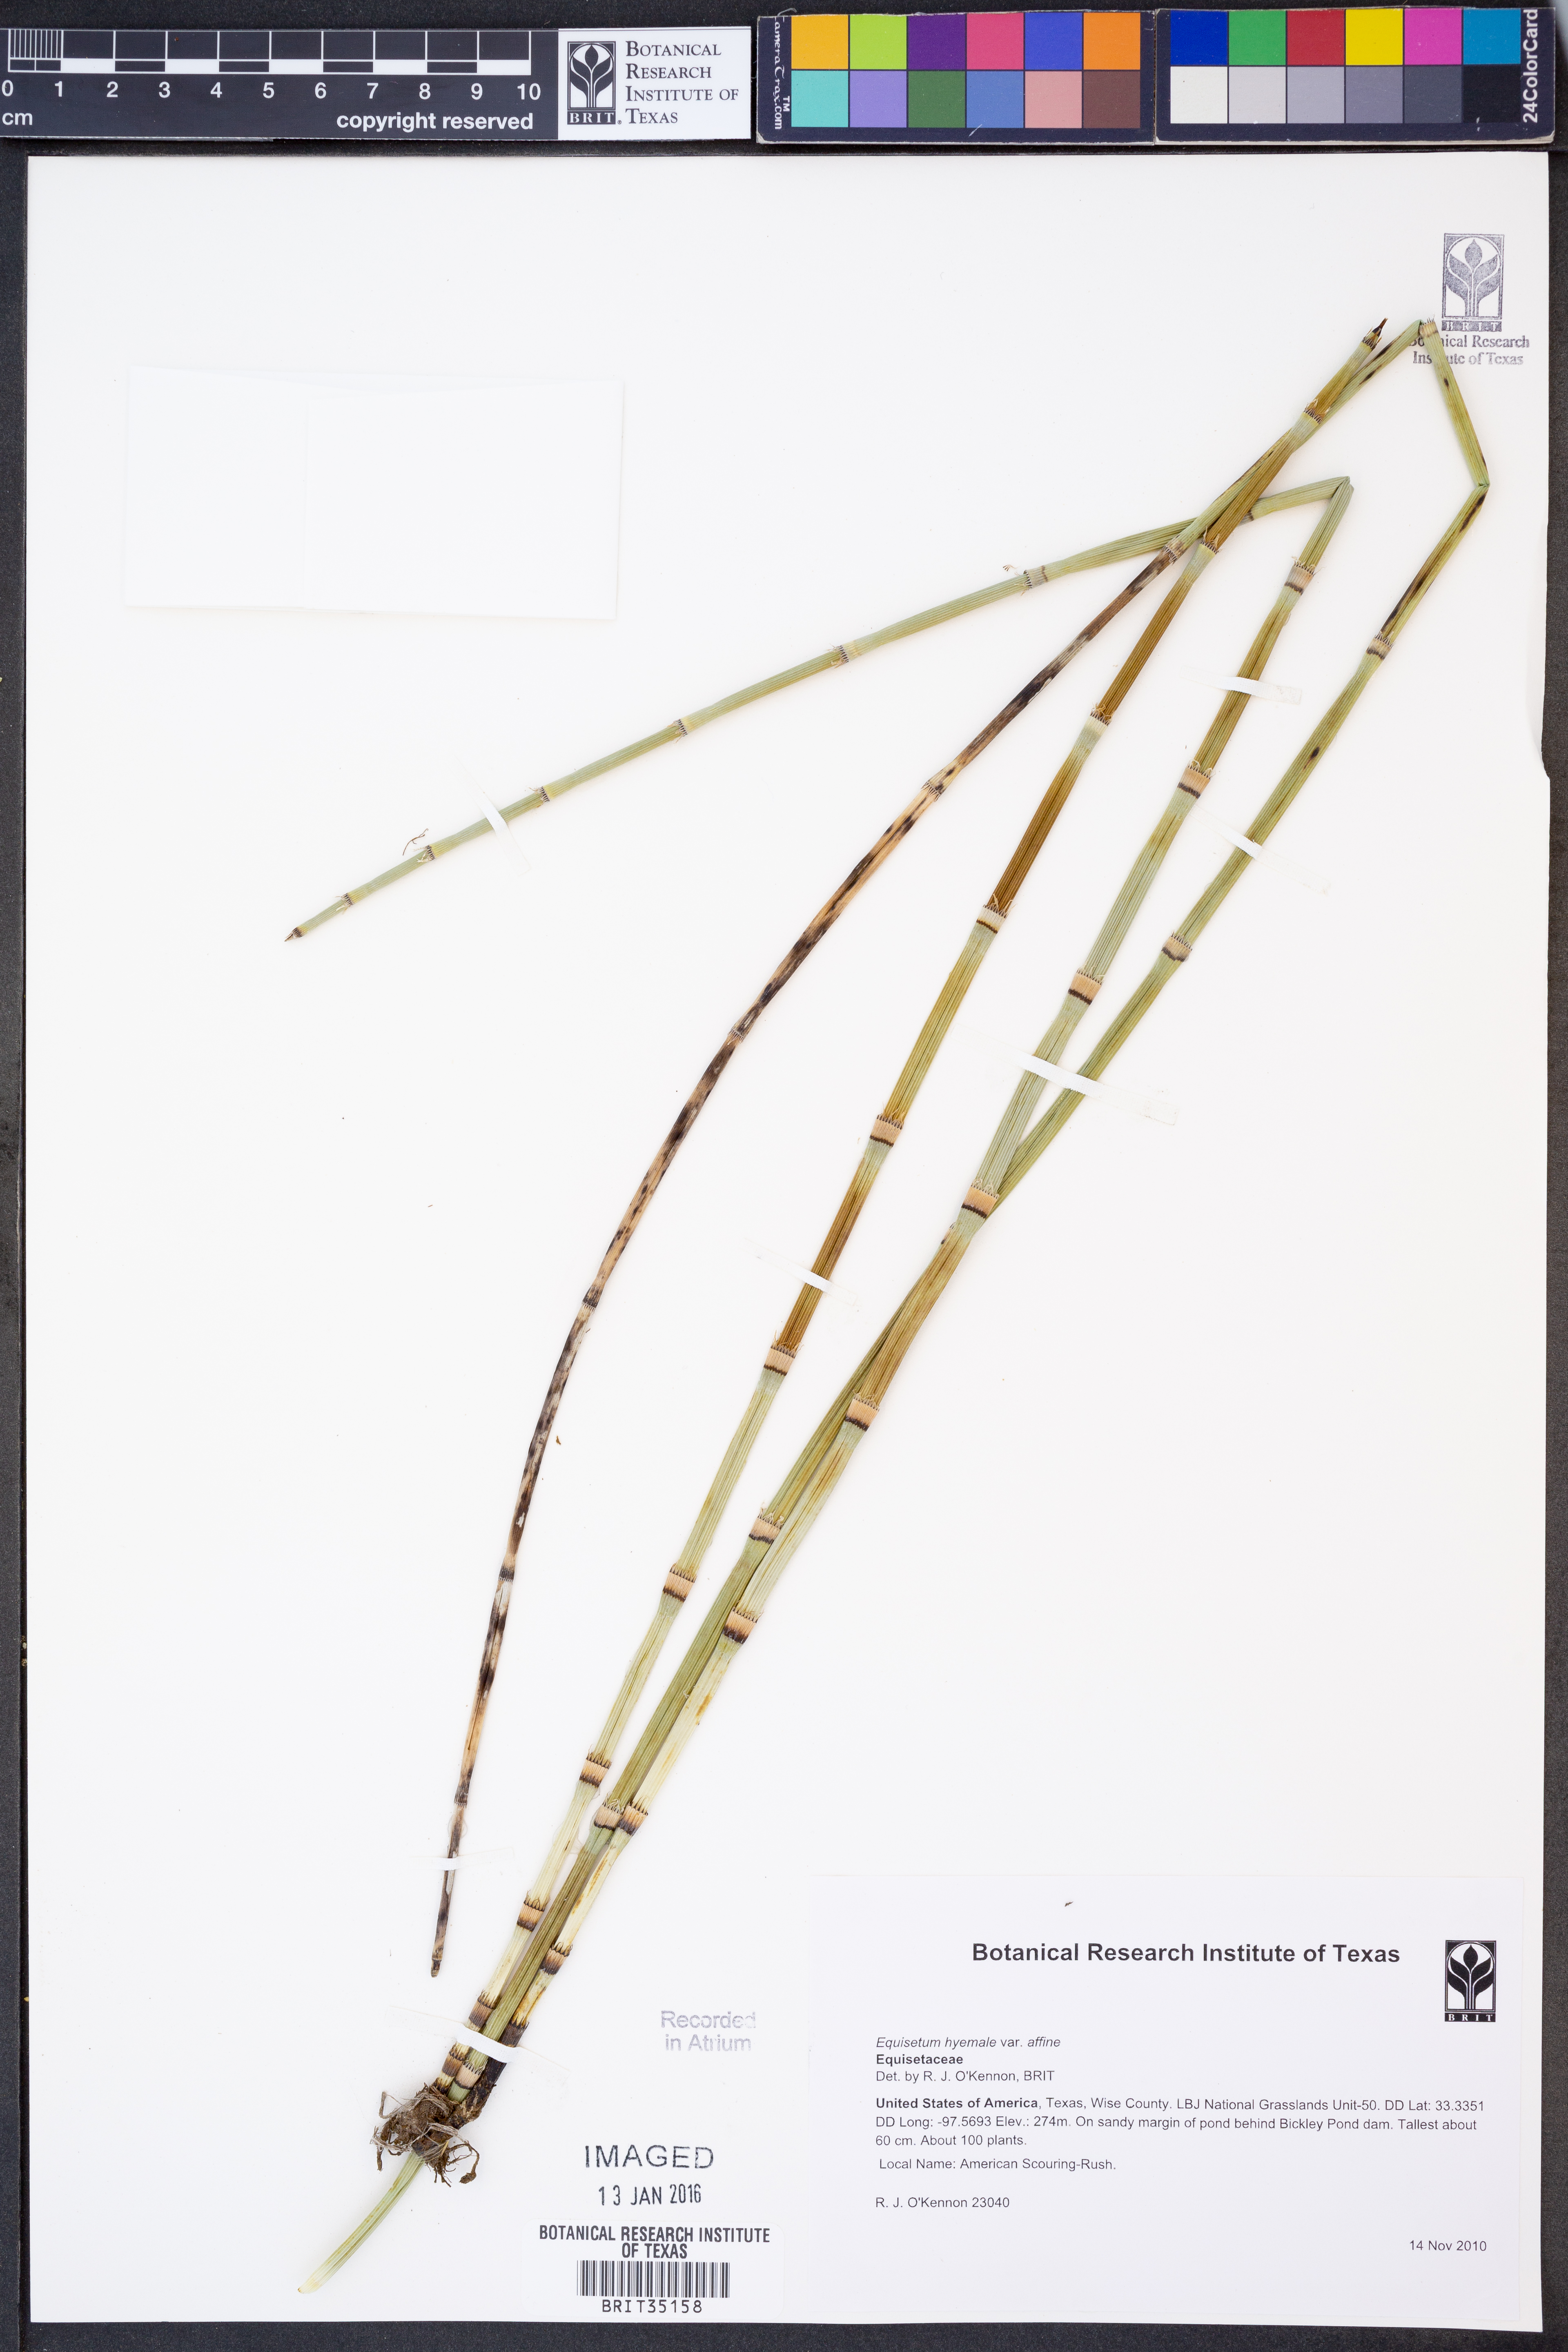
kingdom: Plantae
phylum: Tracheophyta
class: Polypodiopsida
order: Equisetales
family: Equisetaceae
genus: Equisetum
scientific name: Equisetum praealtum
